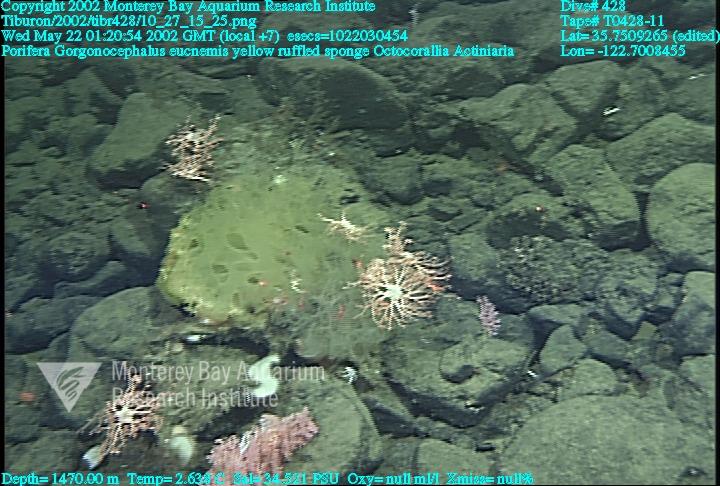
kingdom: Animalia
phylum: Porifera
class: Hexactinellida
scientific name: Hexactinellida
